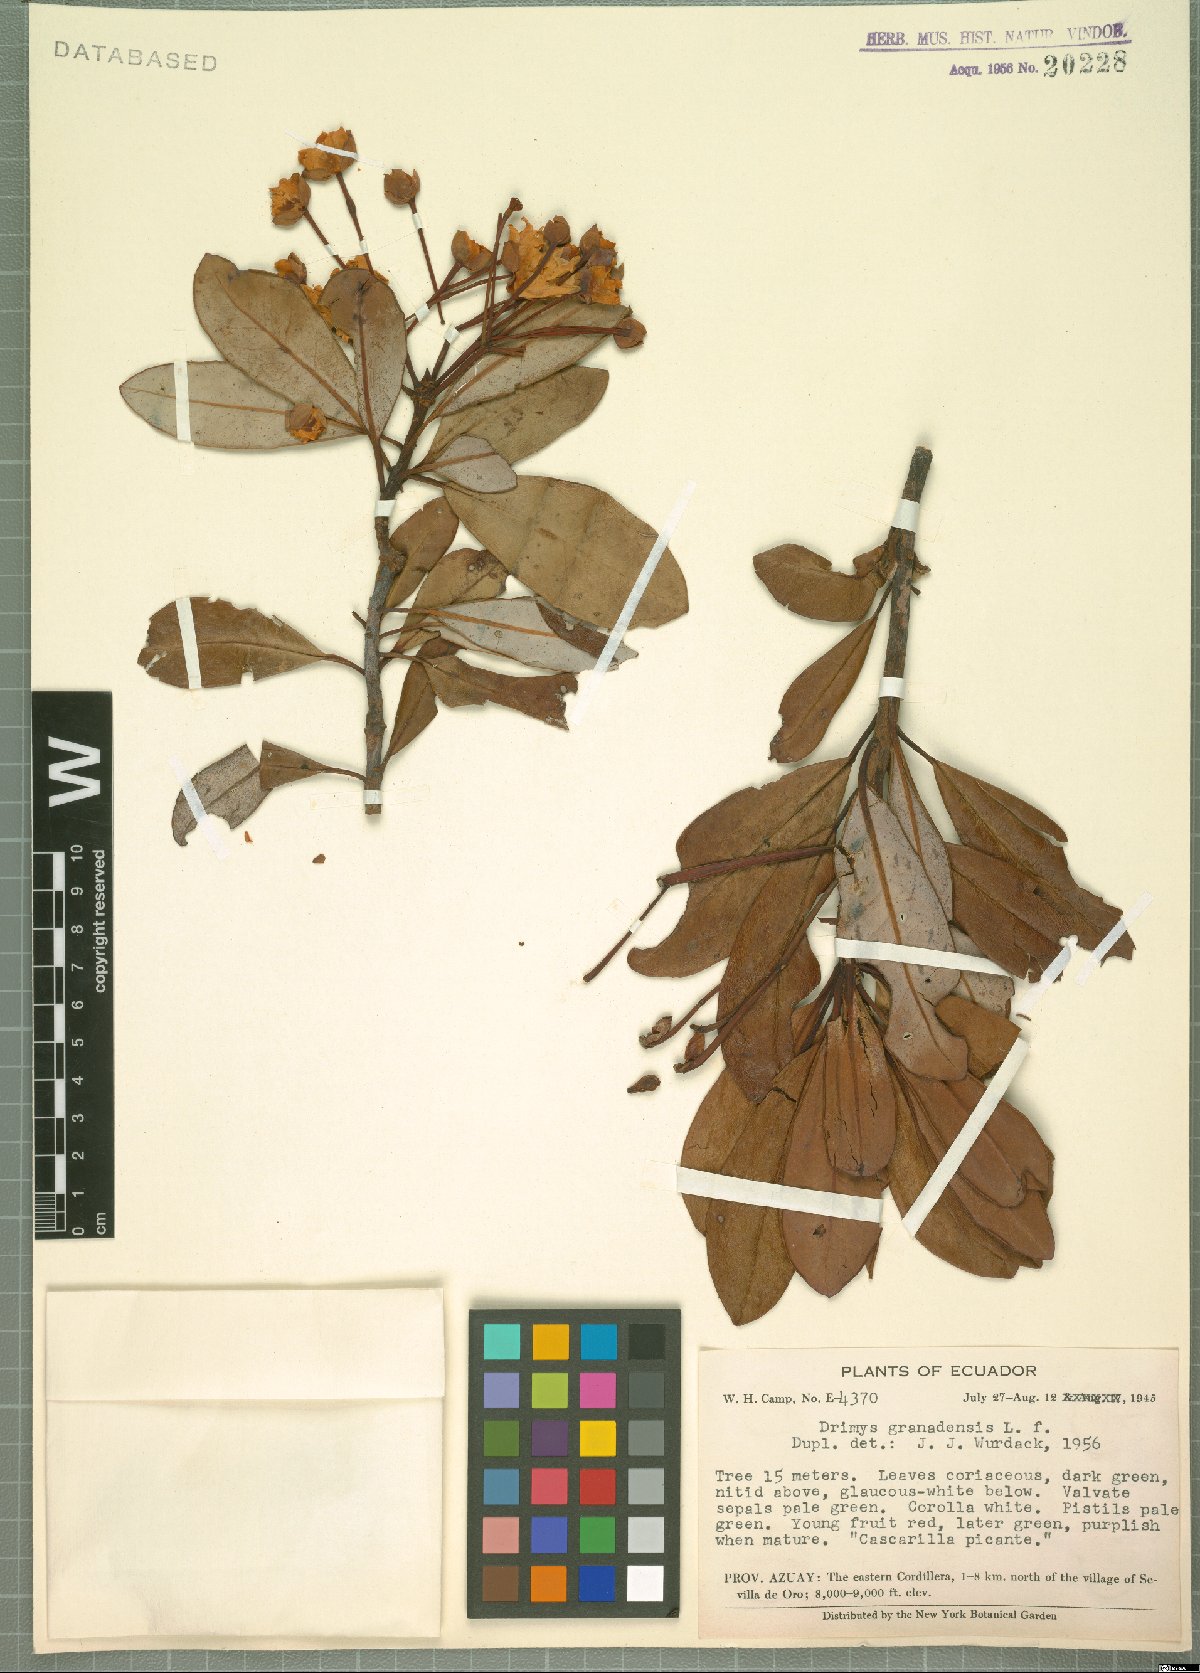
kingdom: Plantae
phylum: Tracheophyta
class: Magnoliopsida
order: Canellales
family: Winteraceae
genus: Drimys
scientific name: Drimys granadensis
